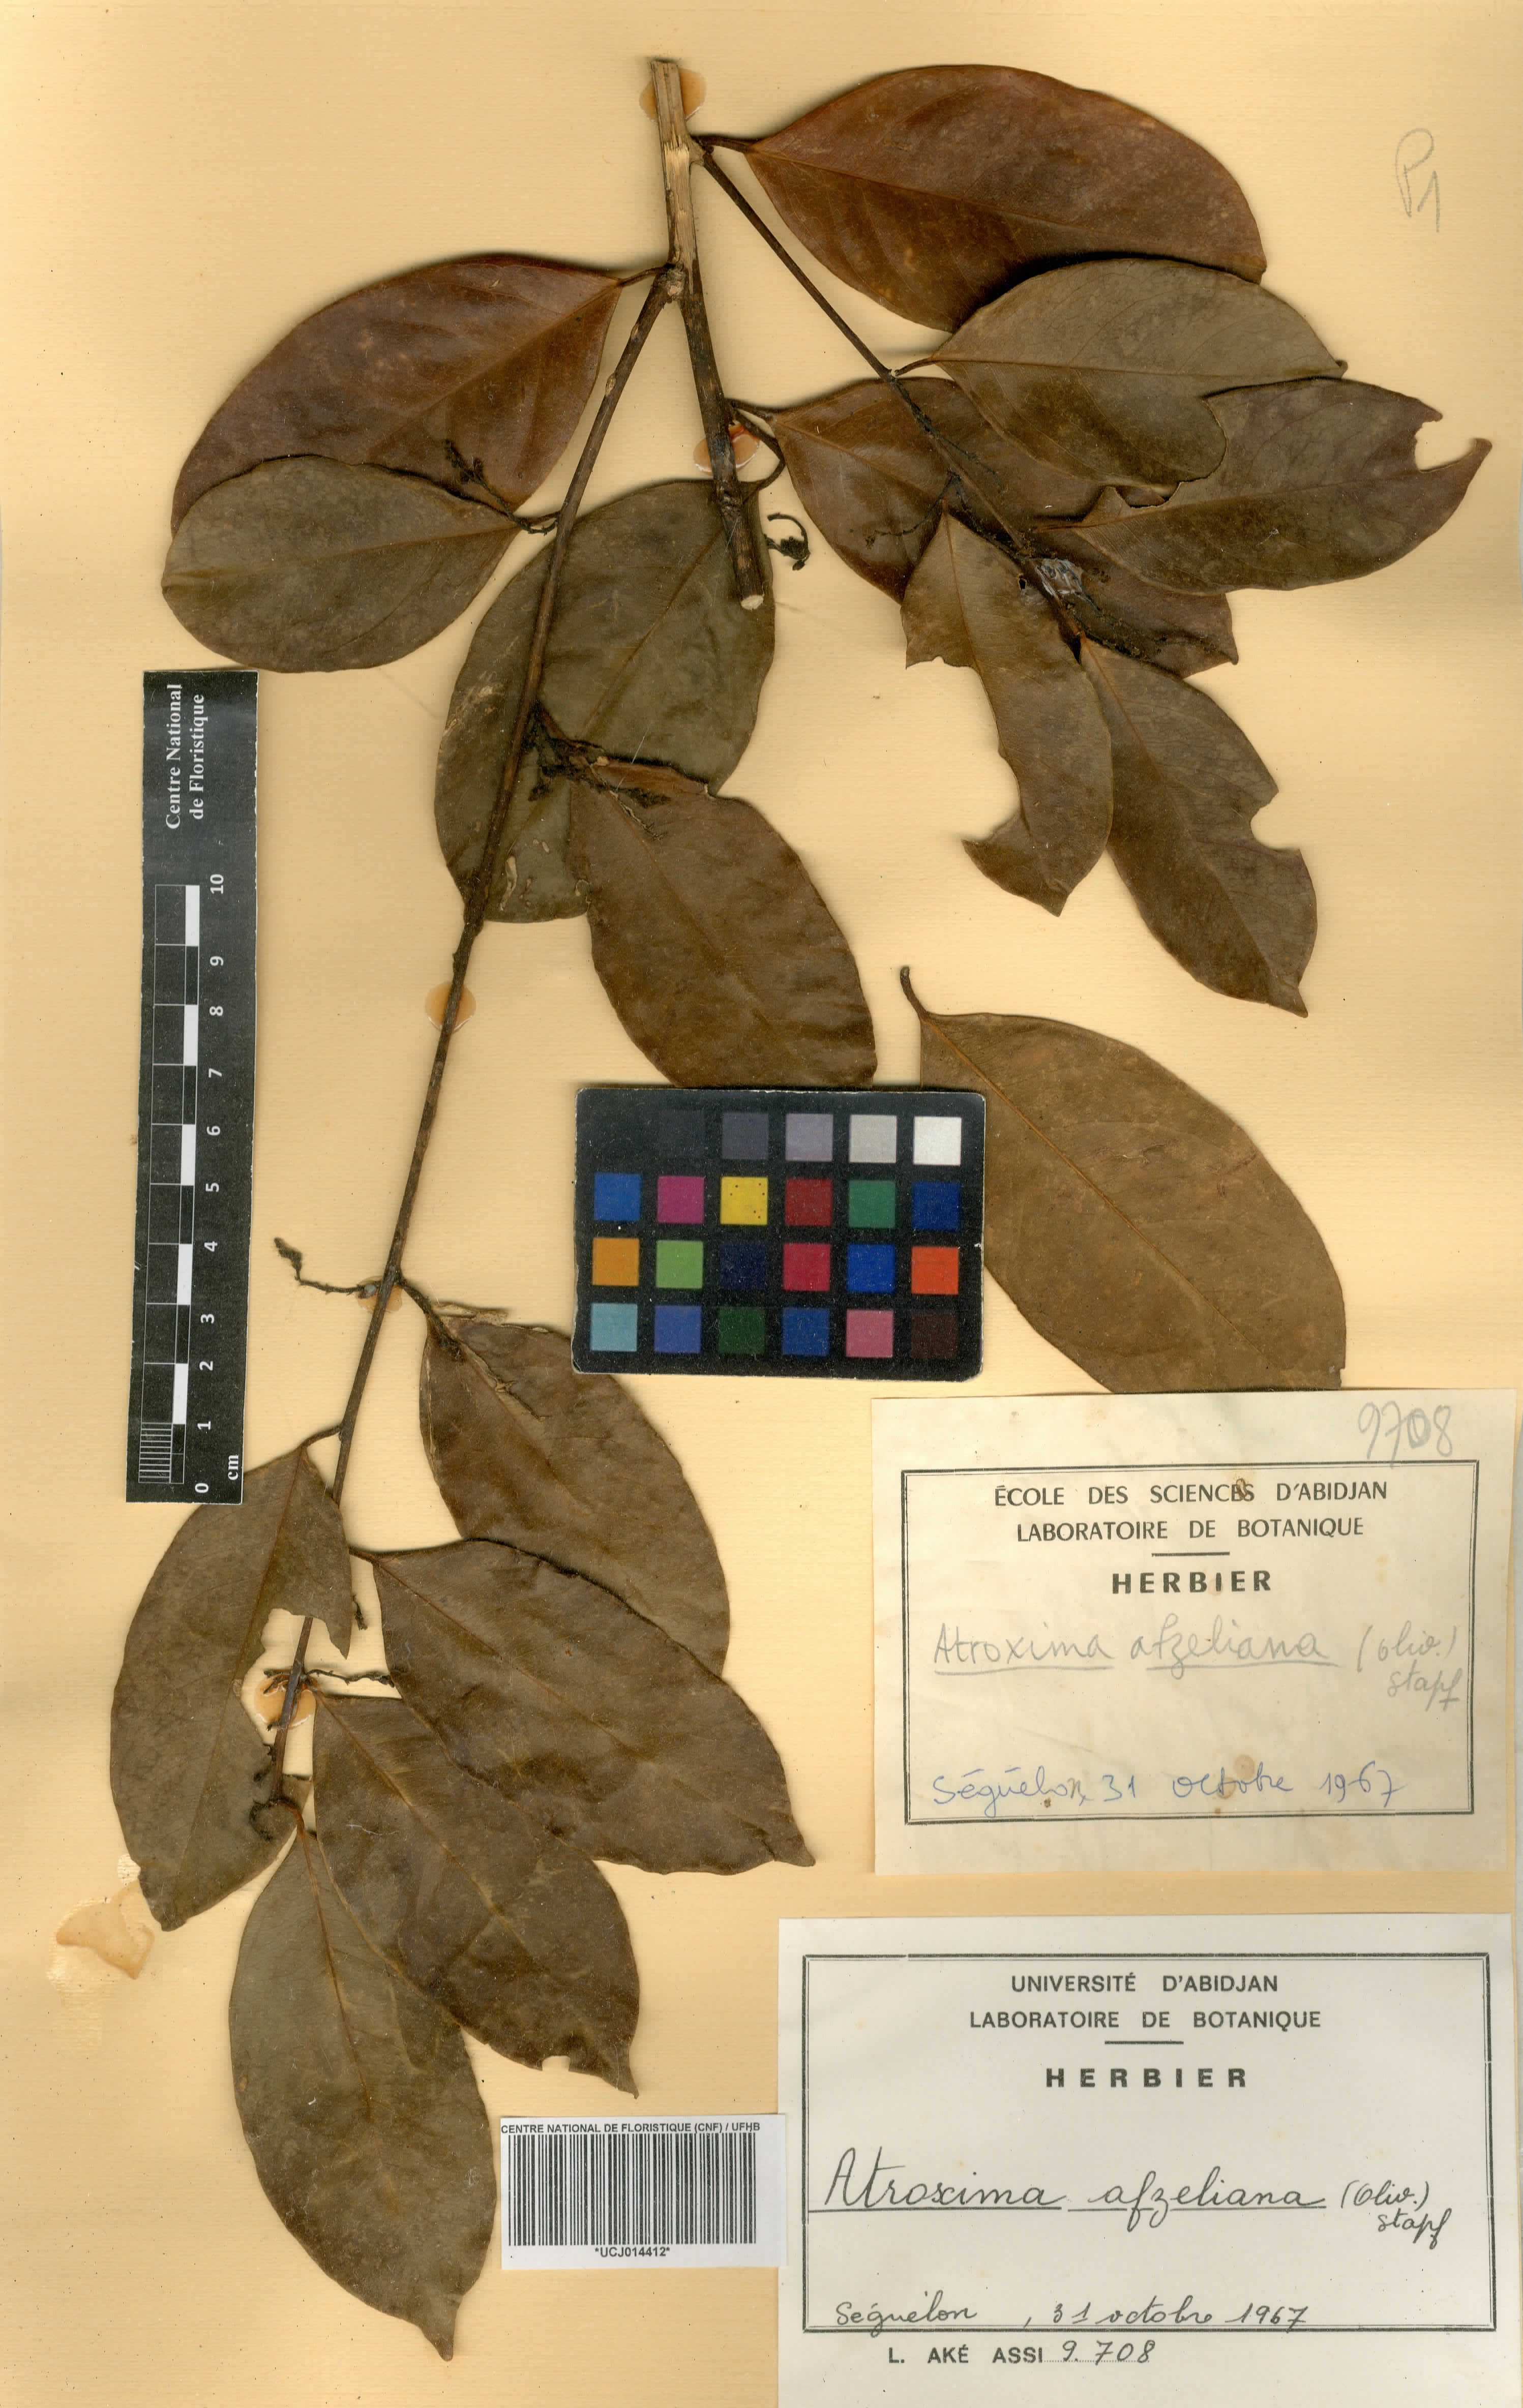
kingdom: Plantae
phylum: Tracheophyta
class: Magnoliopsida
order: Fabales
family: Polygalaceae
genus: Atroxima
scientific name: Atroxima afzeliana
